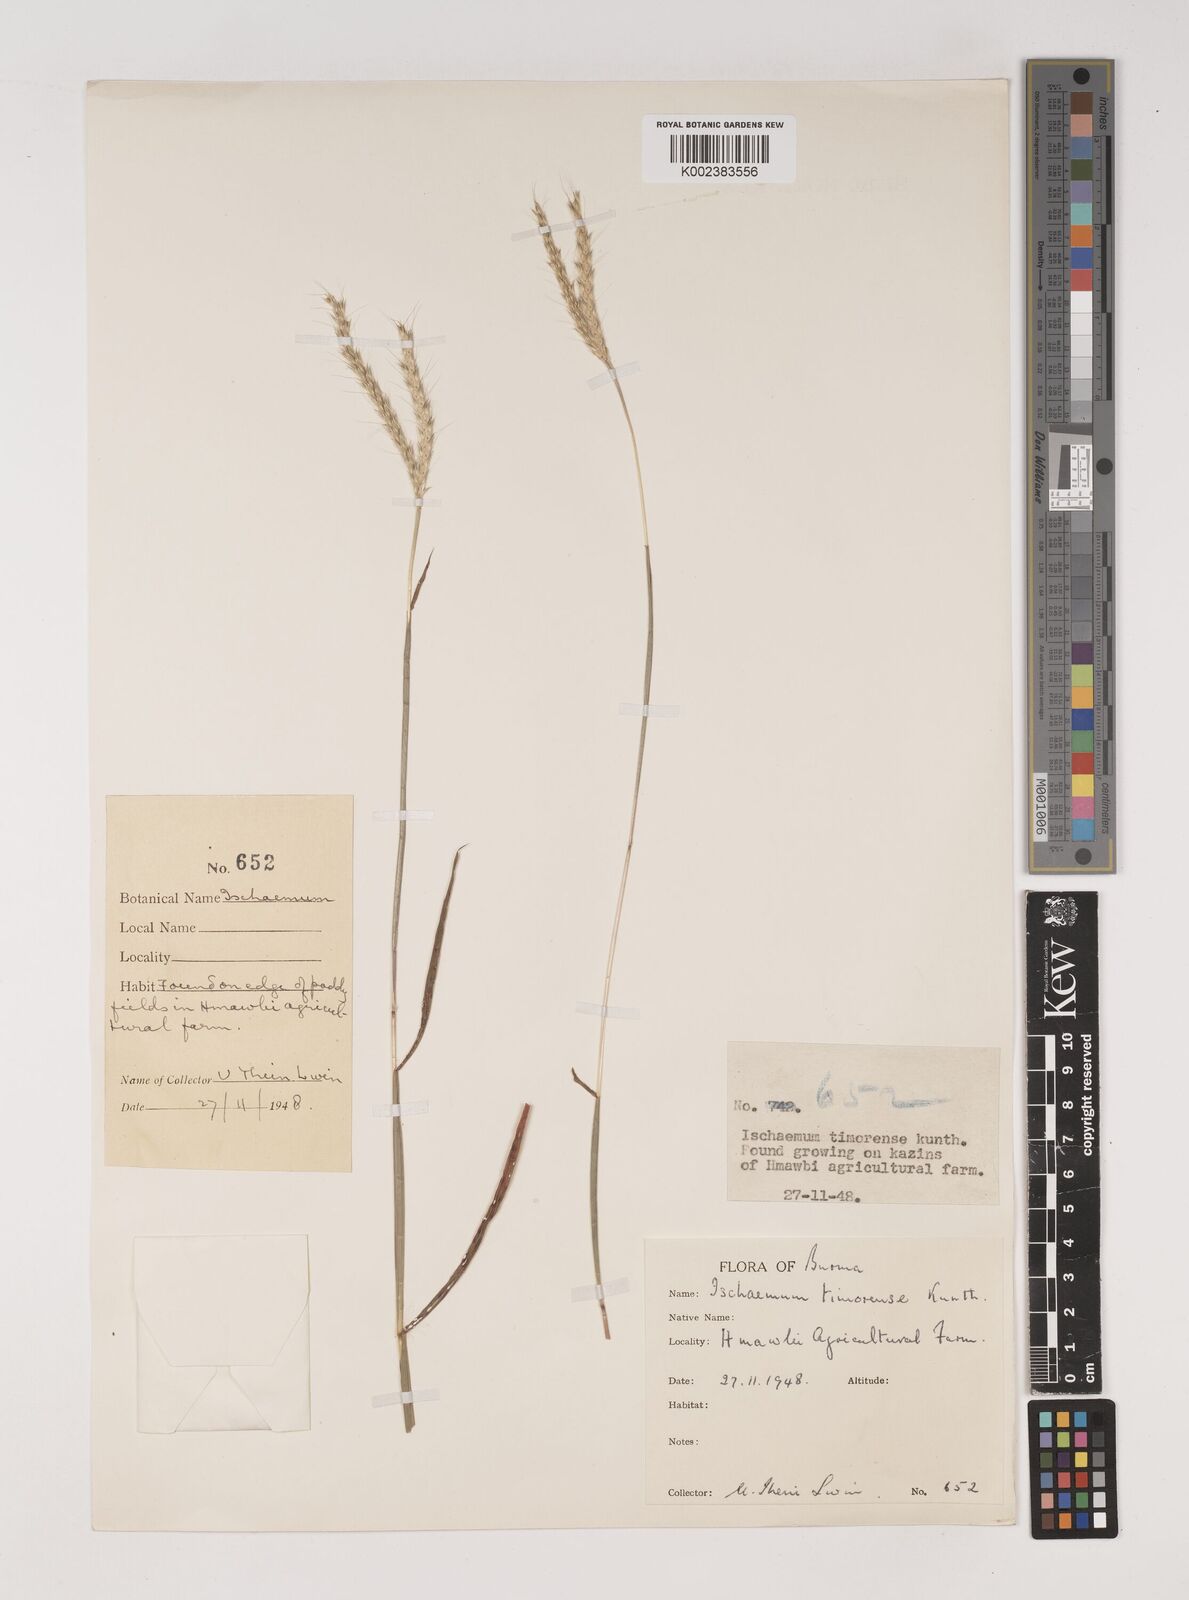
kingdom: Plantae
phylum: Tracheophyta
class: Liliopsida
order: Poales
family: Poaceae
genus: Ischaemum
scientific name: Ischaemum timorense
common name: Stalkleaf murainagrass
